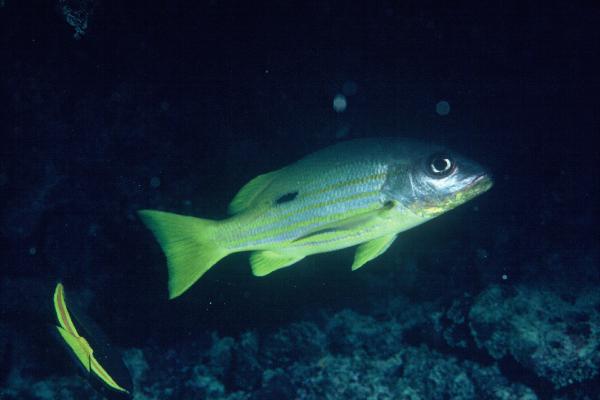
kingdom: Animalia
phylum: Chordata
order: Perciformes
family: Lutjanidae
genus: Lutjanus
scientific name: Lutjanus fulviflamma
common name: Blackspot snapper
